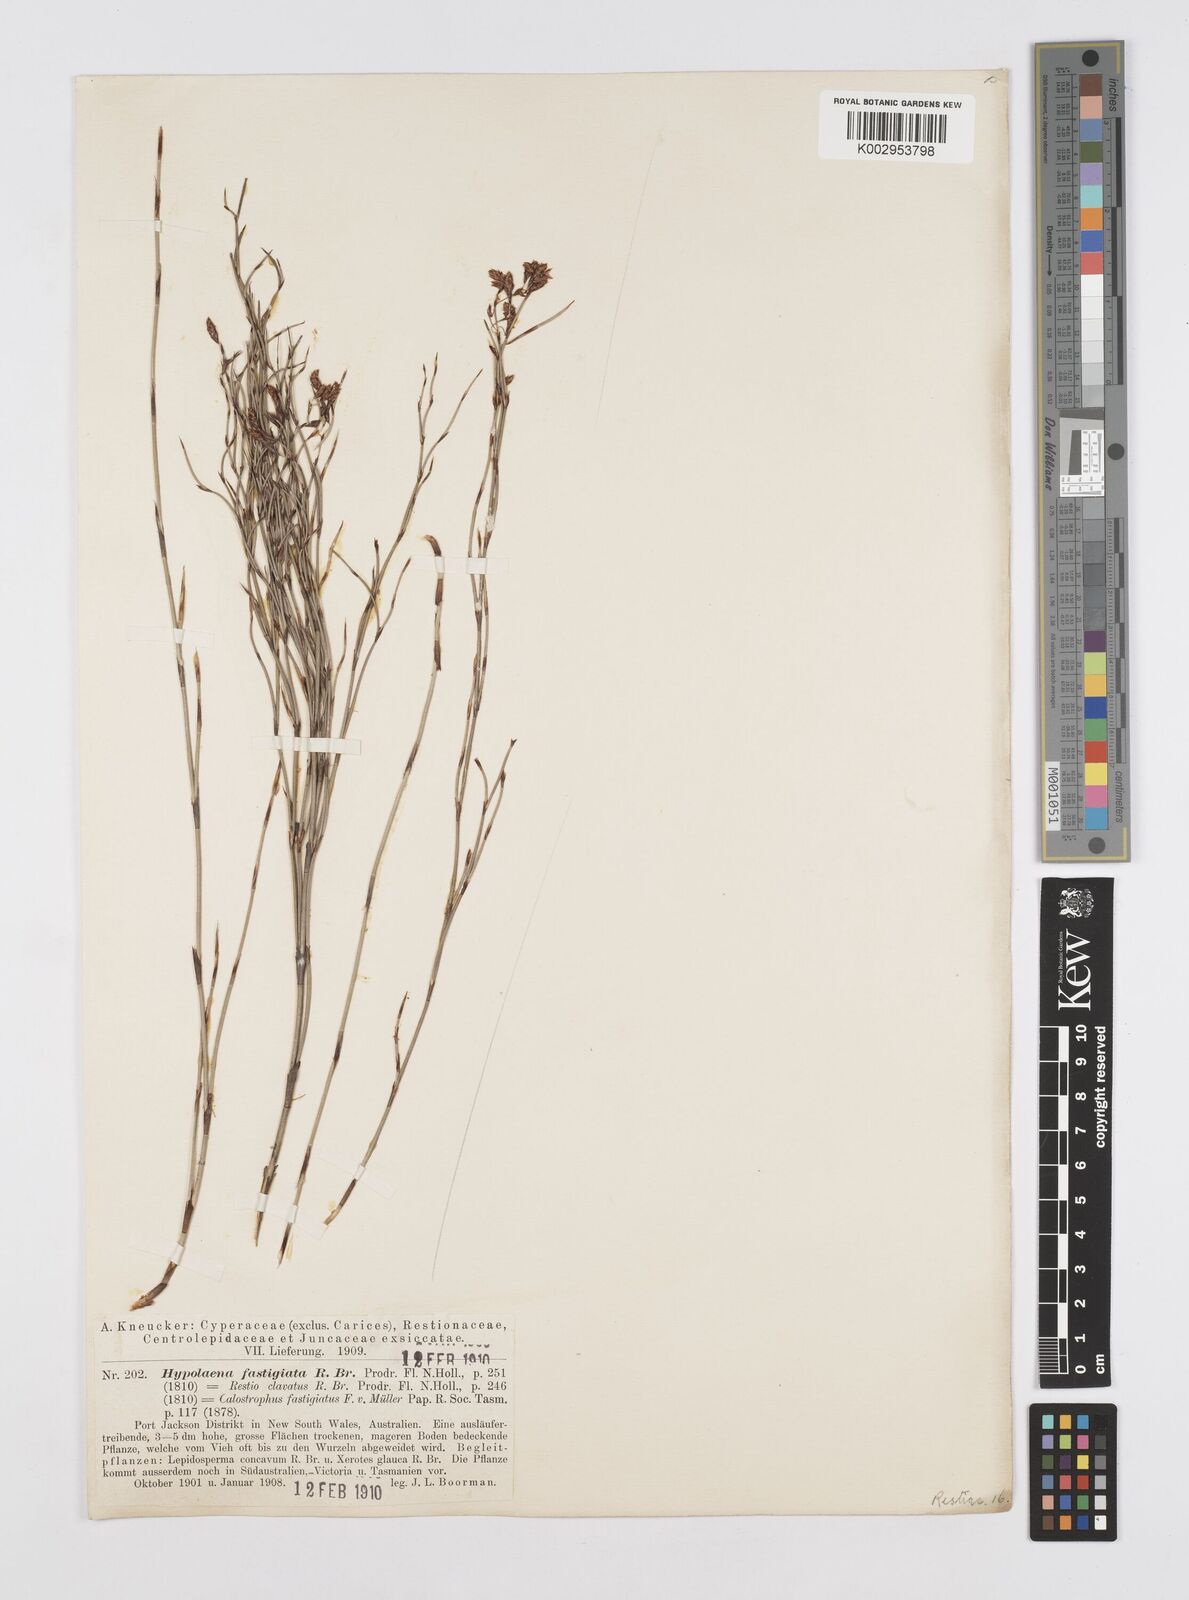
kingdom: Plantae
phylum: Tracheophyta
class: Liliopsida
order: Poales
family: Restionaceae
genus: Hypolaena
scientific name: Hypolaena fastigiata
